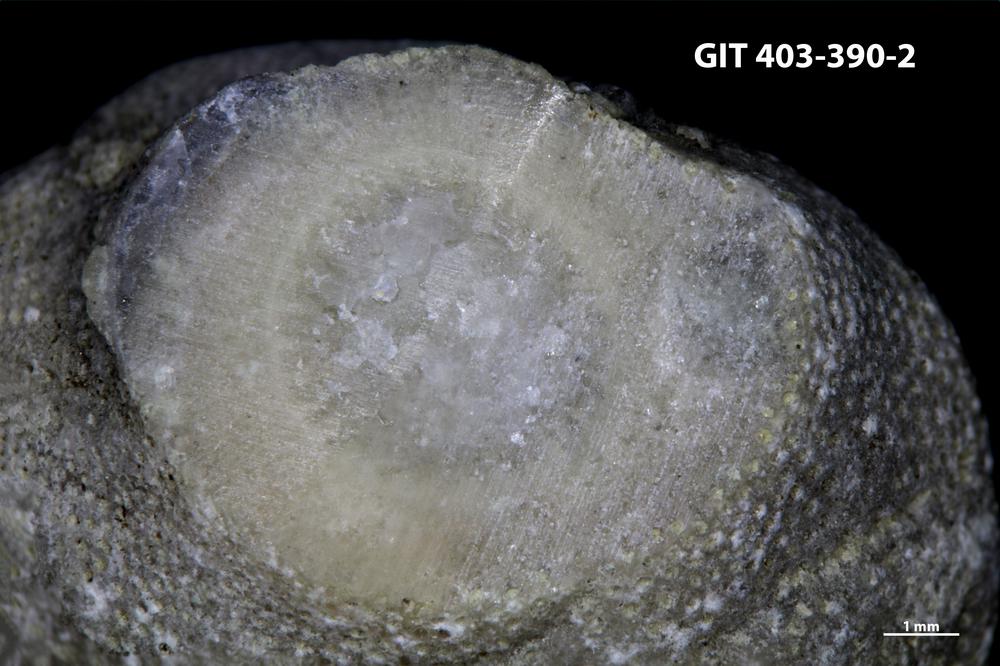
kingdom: Animalia
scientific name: Animalia
